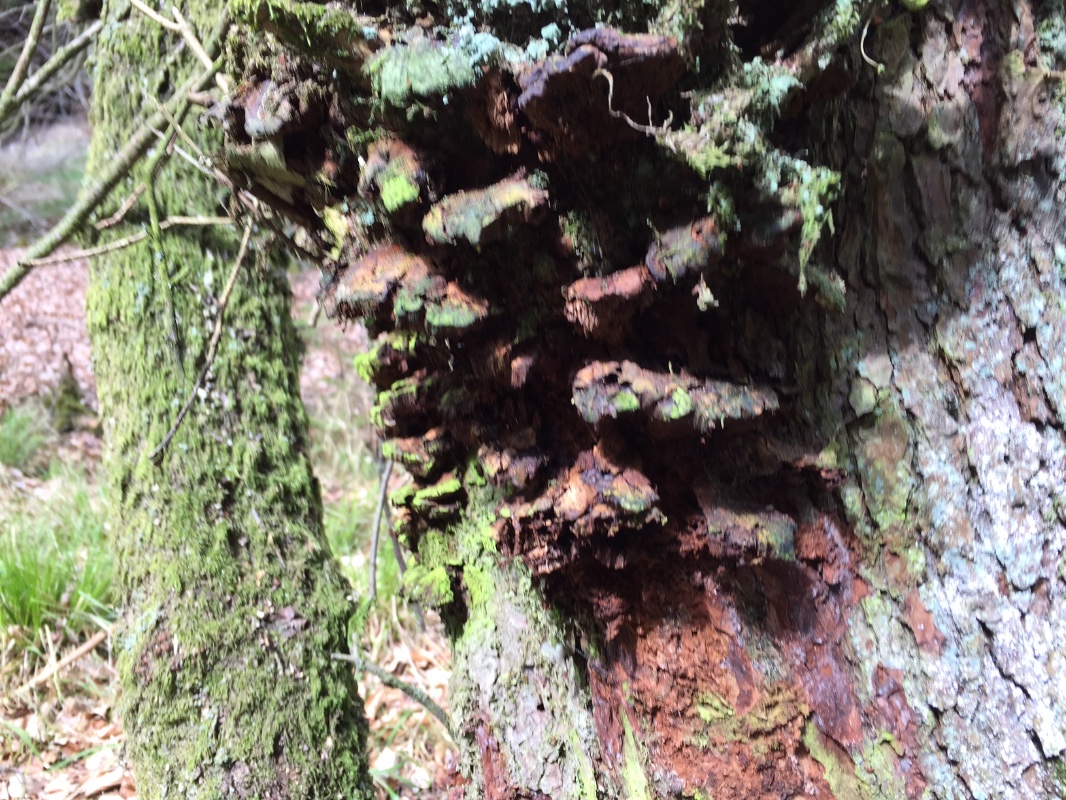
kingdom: Fungi
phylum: Basidiomycota
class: Agaricomycetes
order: Hymenochaetales
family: Hymenochaetaceae
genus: Xanthoporia
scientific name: Xanthoporia radiata
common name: elle-spejlporesvamp
